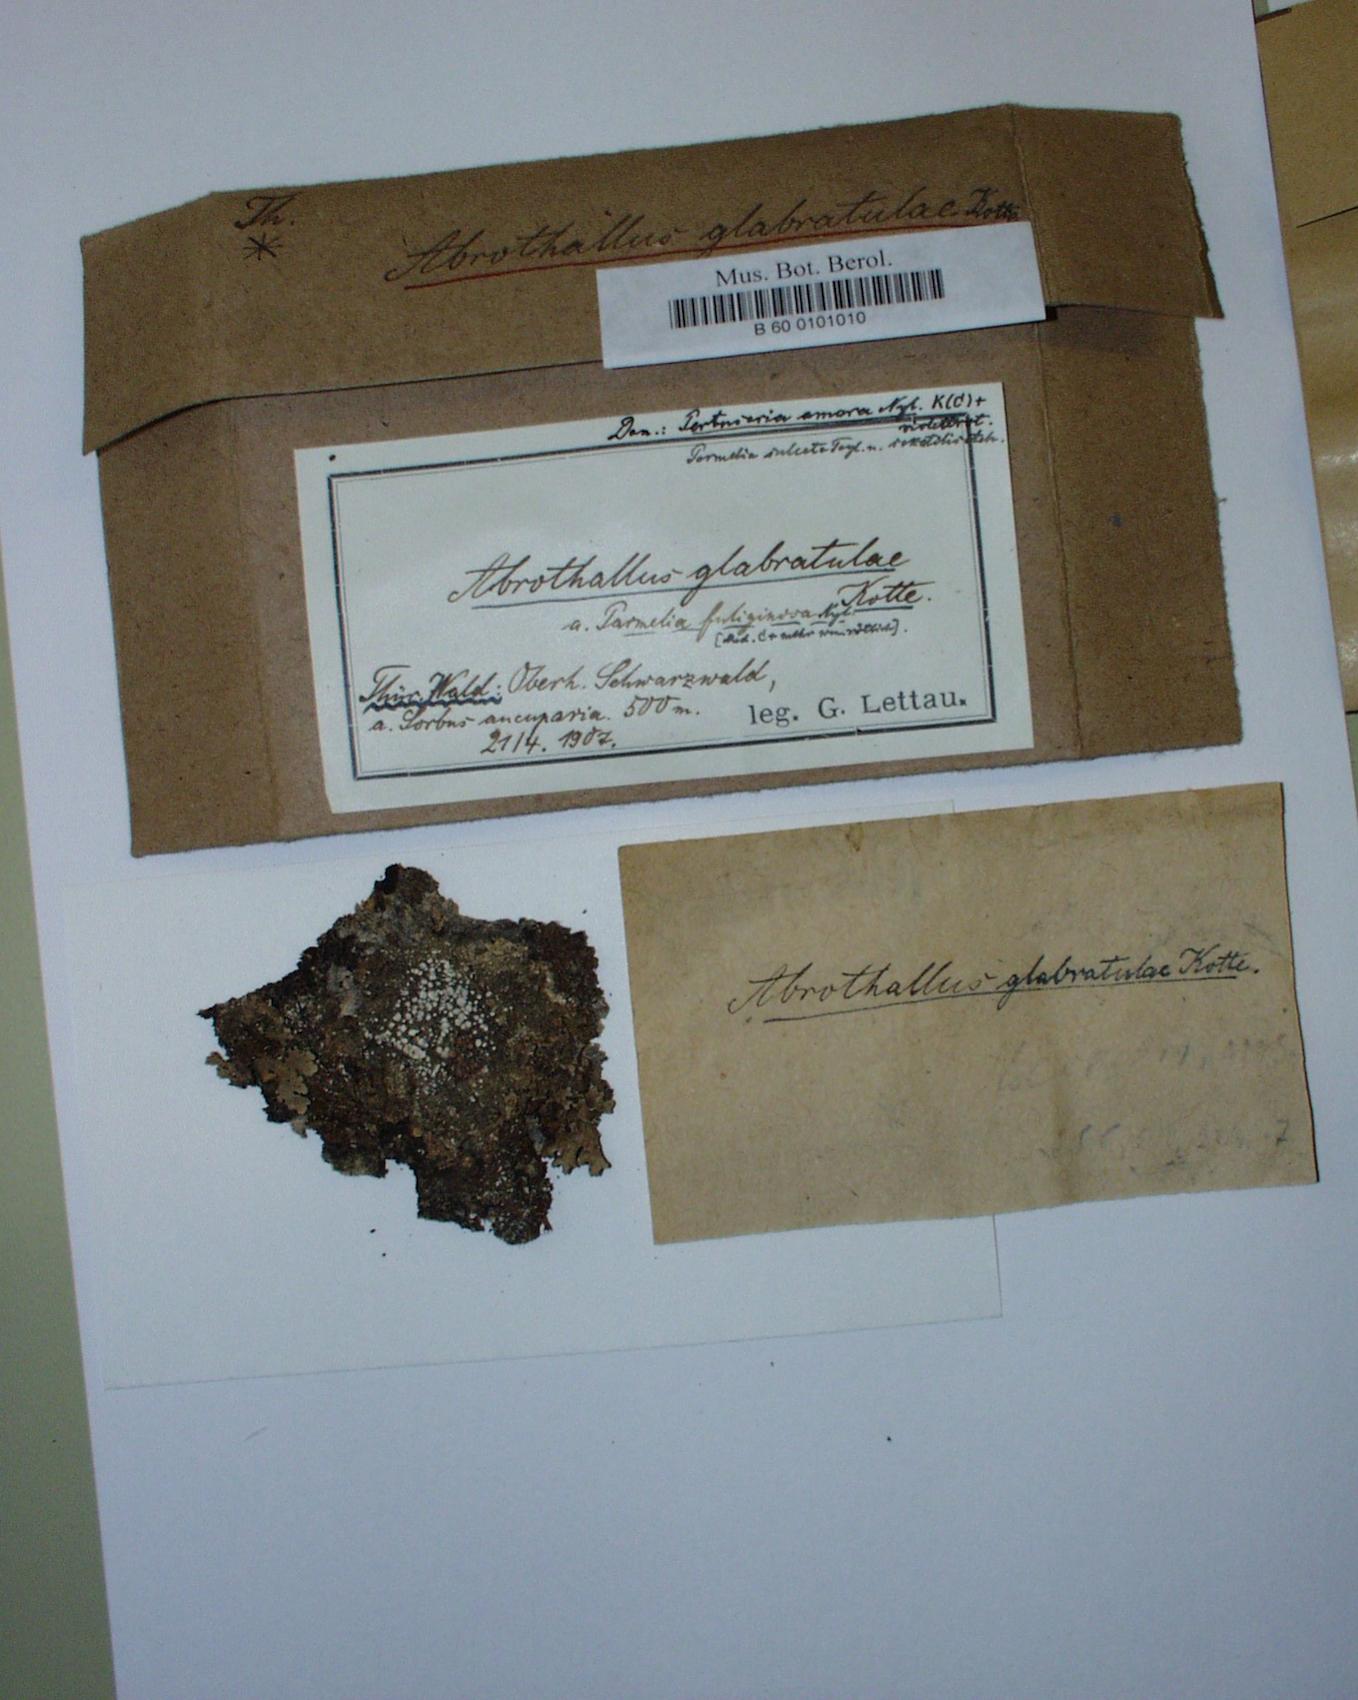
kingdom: Fungi
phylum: Ascomycota
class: Dothideomycetes
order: Abrothallales
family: Abrothallaceae
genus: Abrothallus
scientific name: Abrothallus parmeliarum
